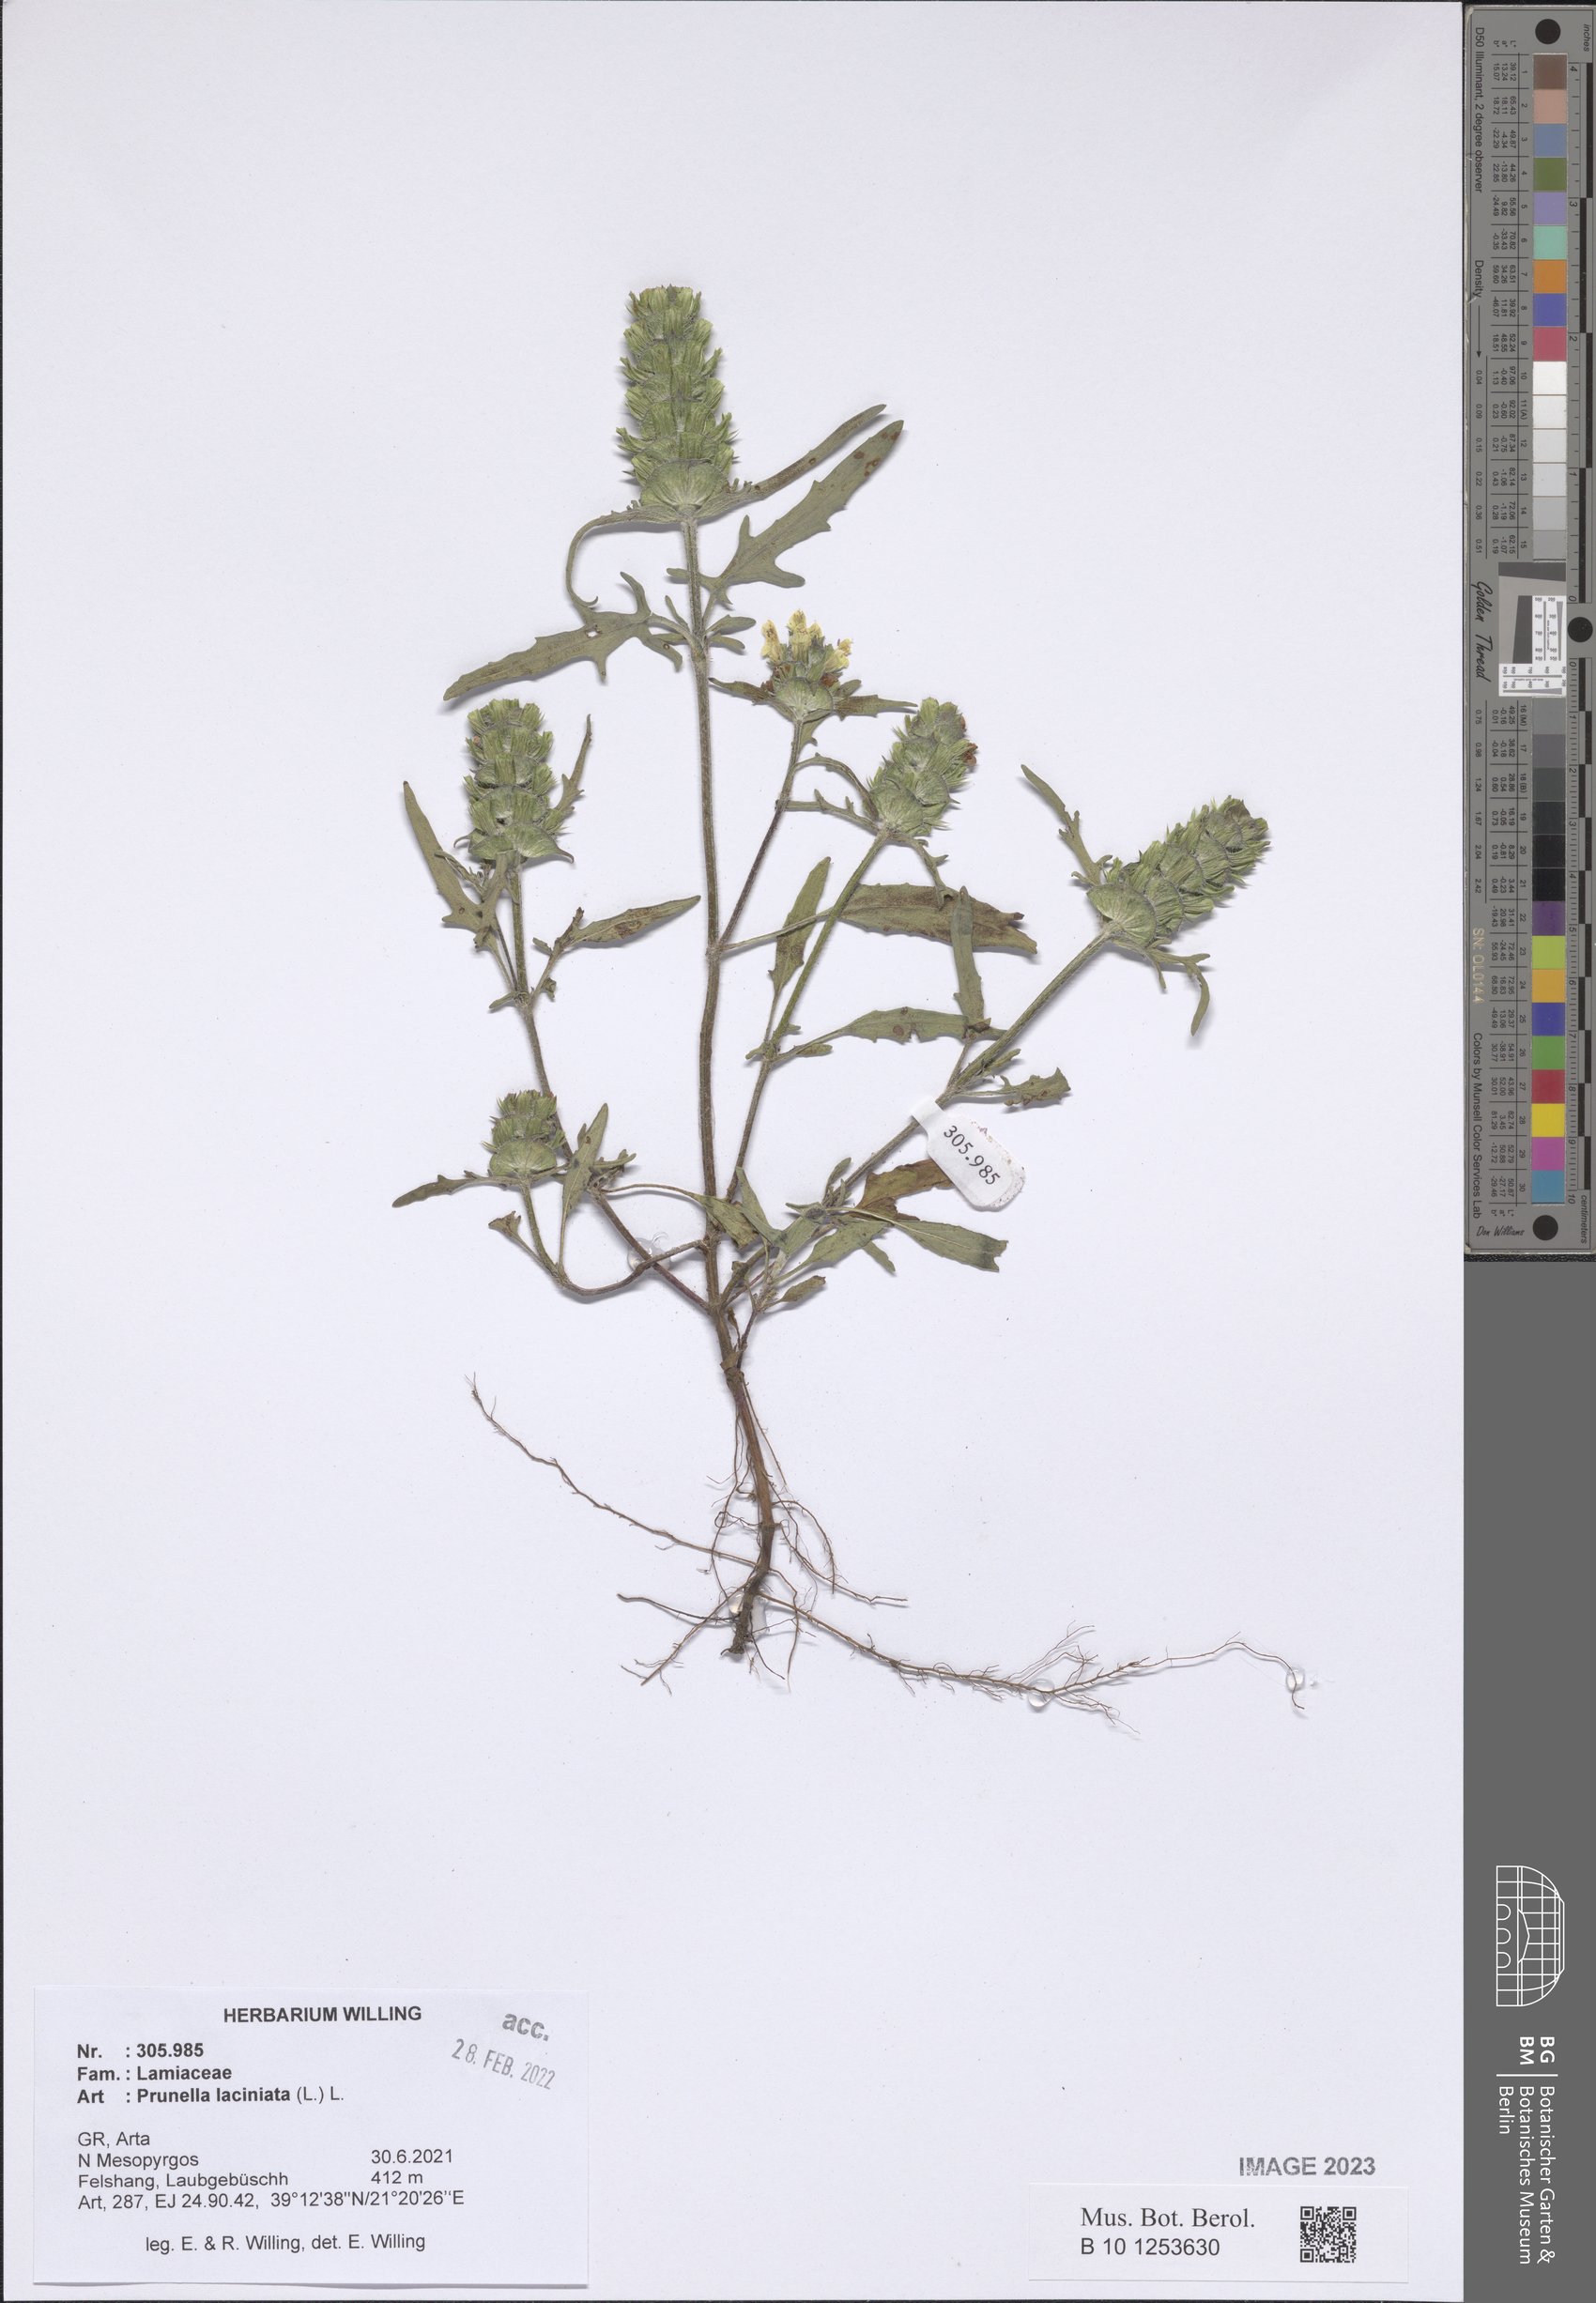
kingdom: Plantae
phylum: Tracheophyta
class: Magnoliopsida
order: Lamiales
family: Lamiaceae
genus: Prunella
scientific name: Prunella laciniata
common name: Cut-leaved selfheal
